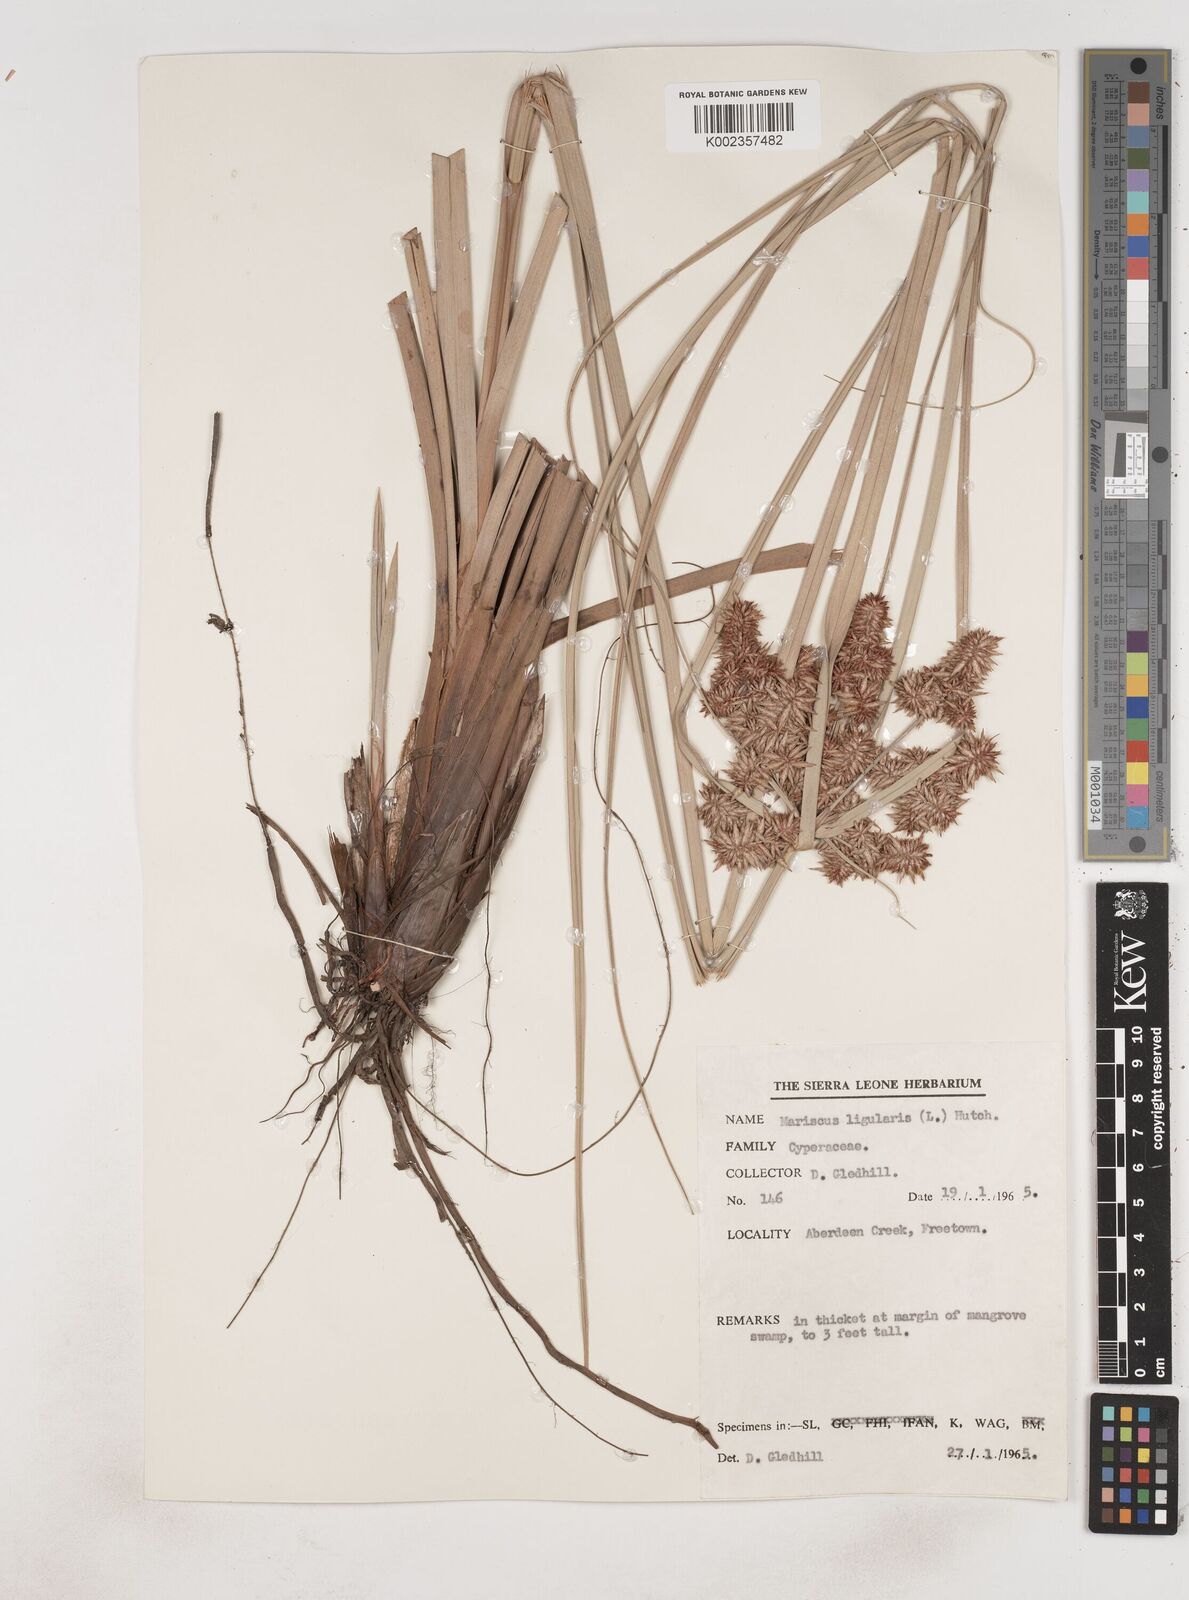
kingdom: Plantae
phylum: Tracheophyta
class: Liliopsida
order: Poales
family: Cyperaceae
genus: Cyperus
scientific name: Cyperus ligularis
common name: Swamp flat sedge
